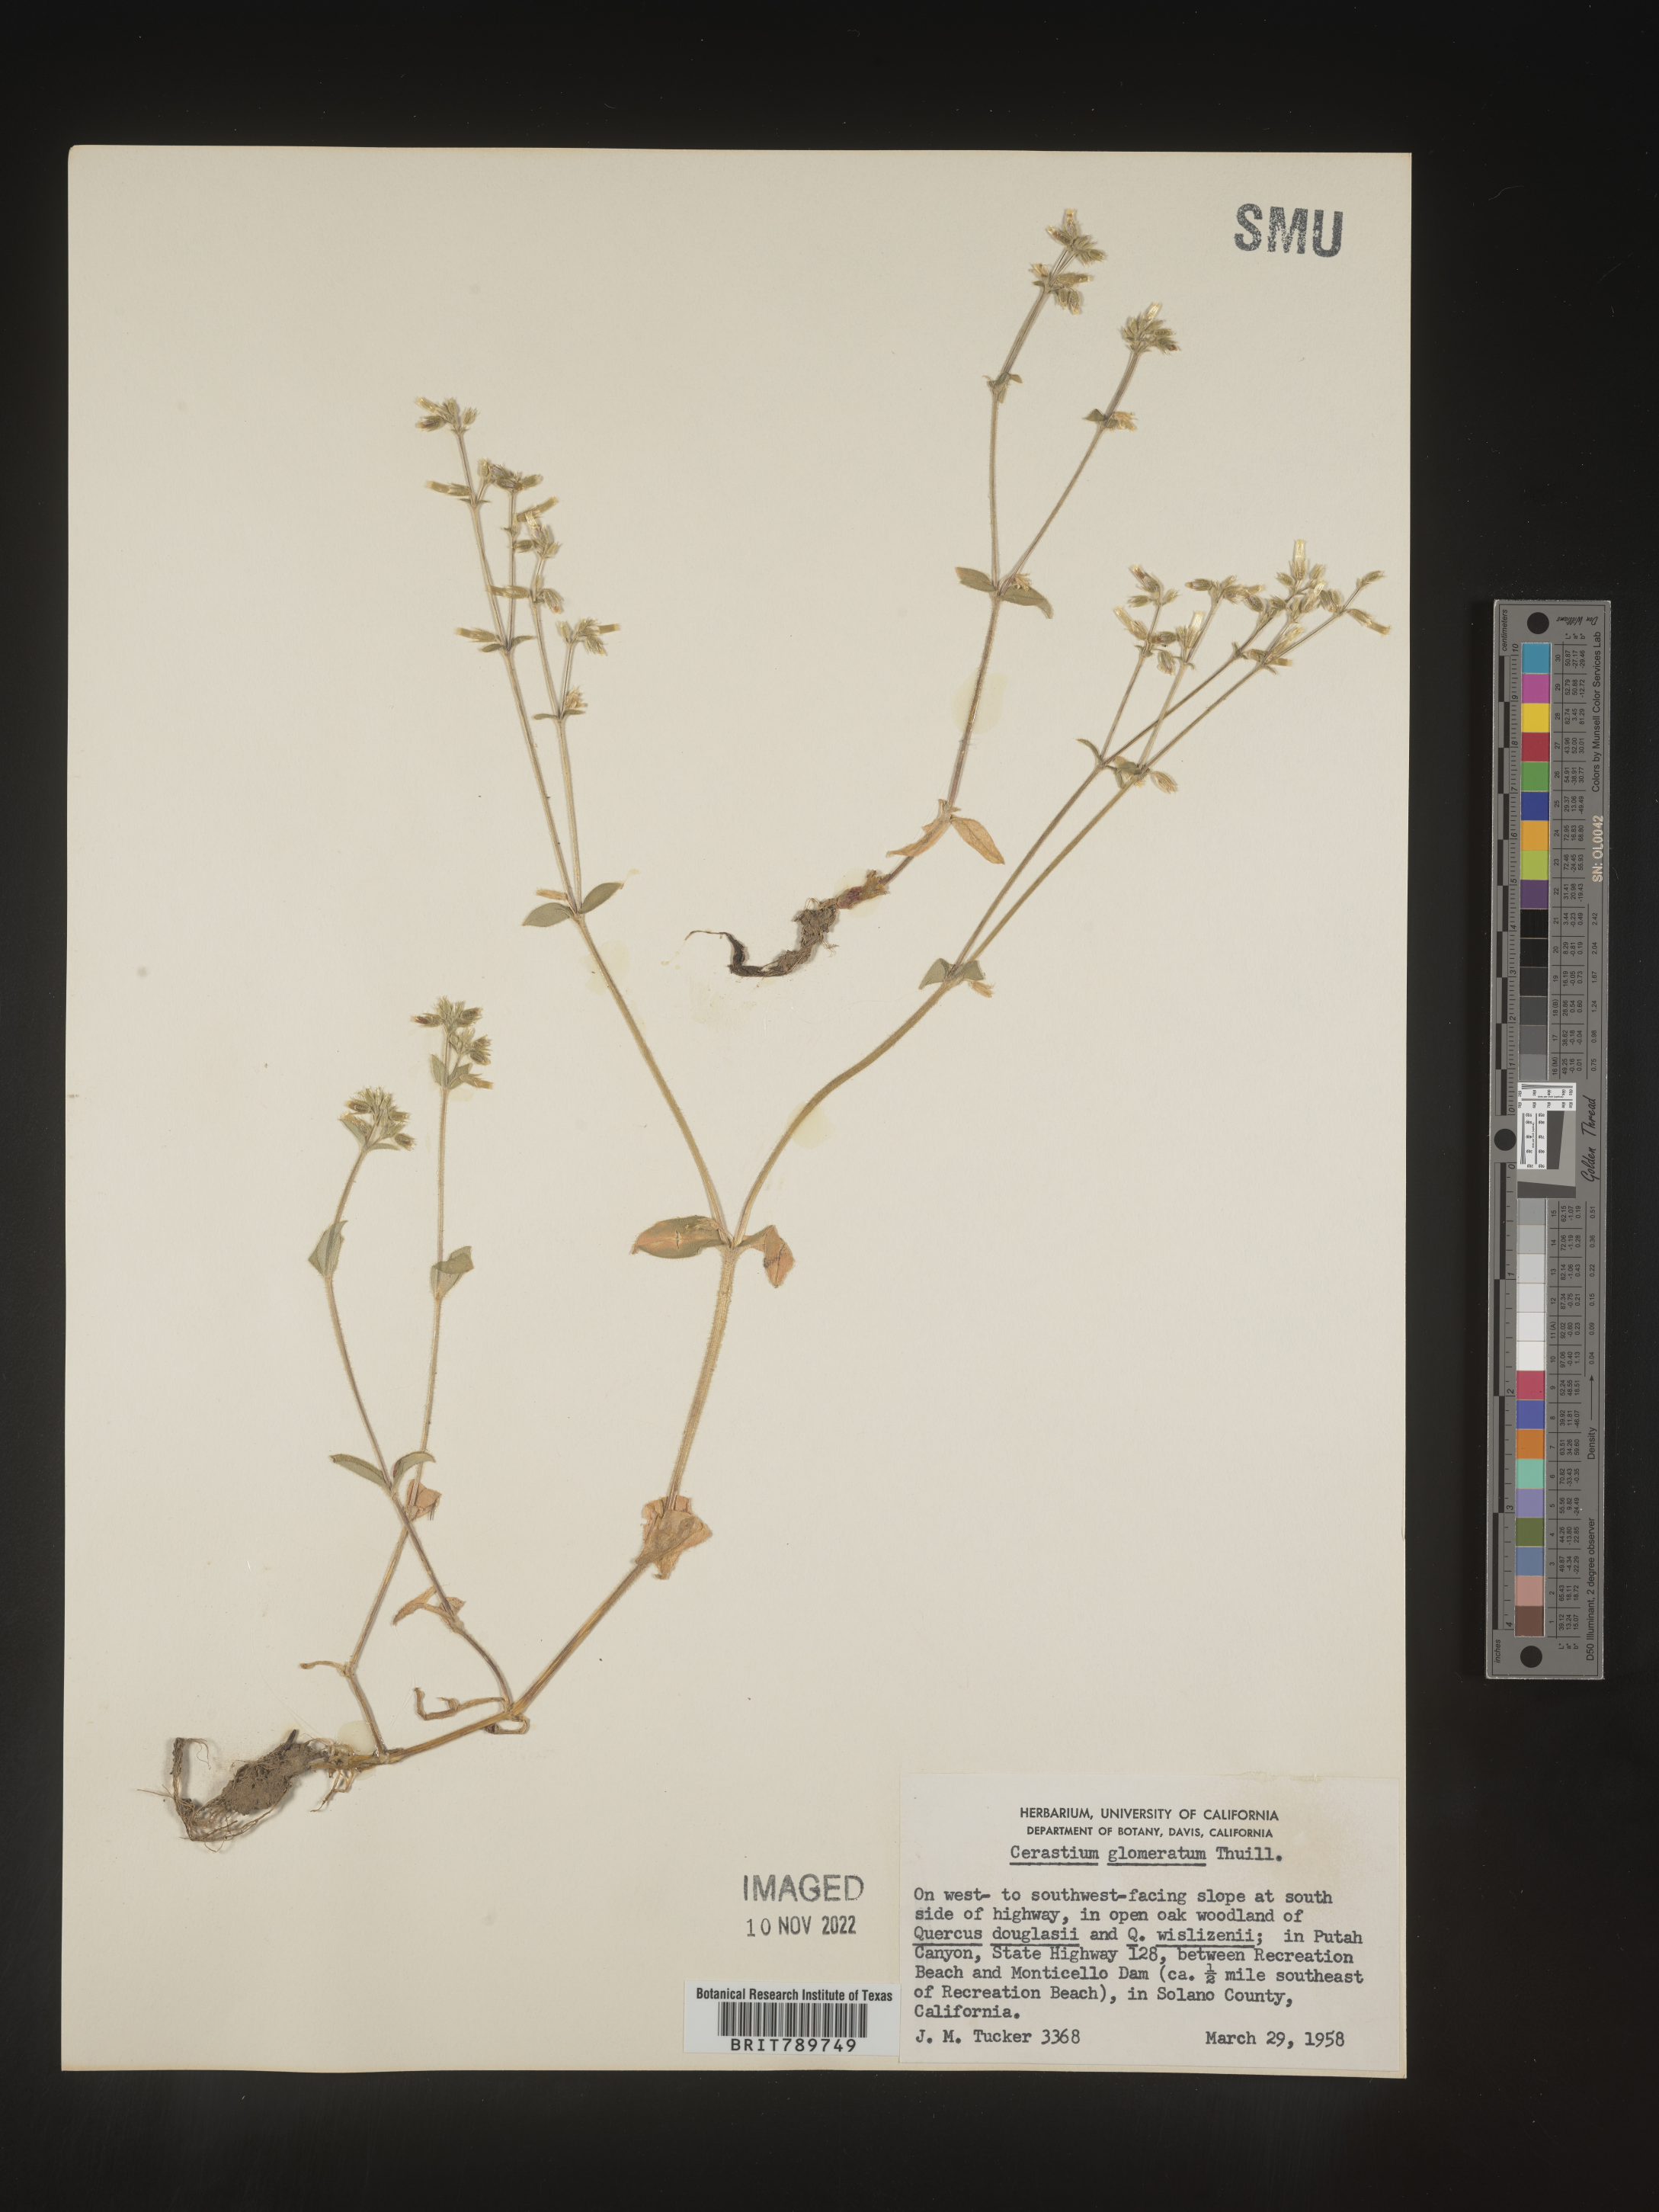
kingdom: Plantae
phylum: Tracheophyta
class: Magnoliopsida
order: Caryophyllales
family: Caryophyllaceae
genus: Cerastium
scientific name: Cerastium glomeratum
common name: Sticky chickweed
